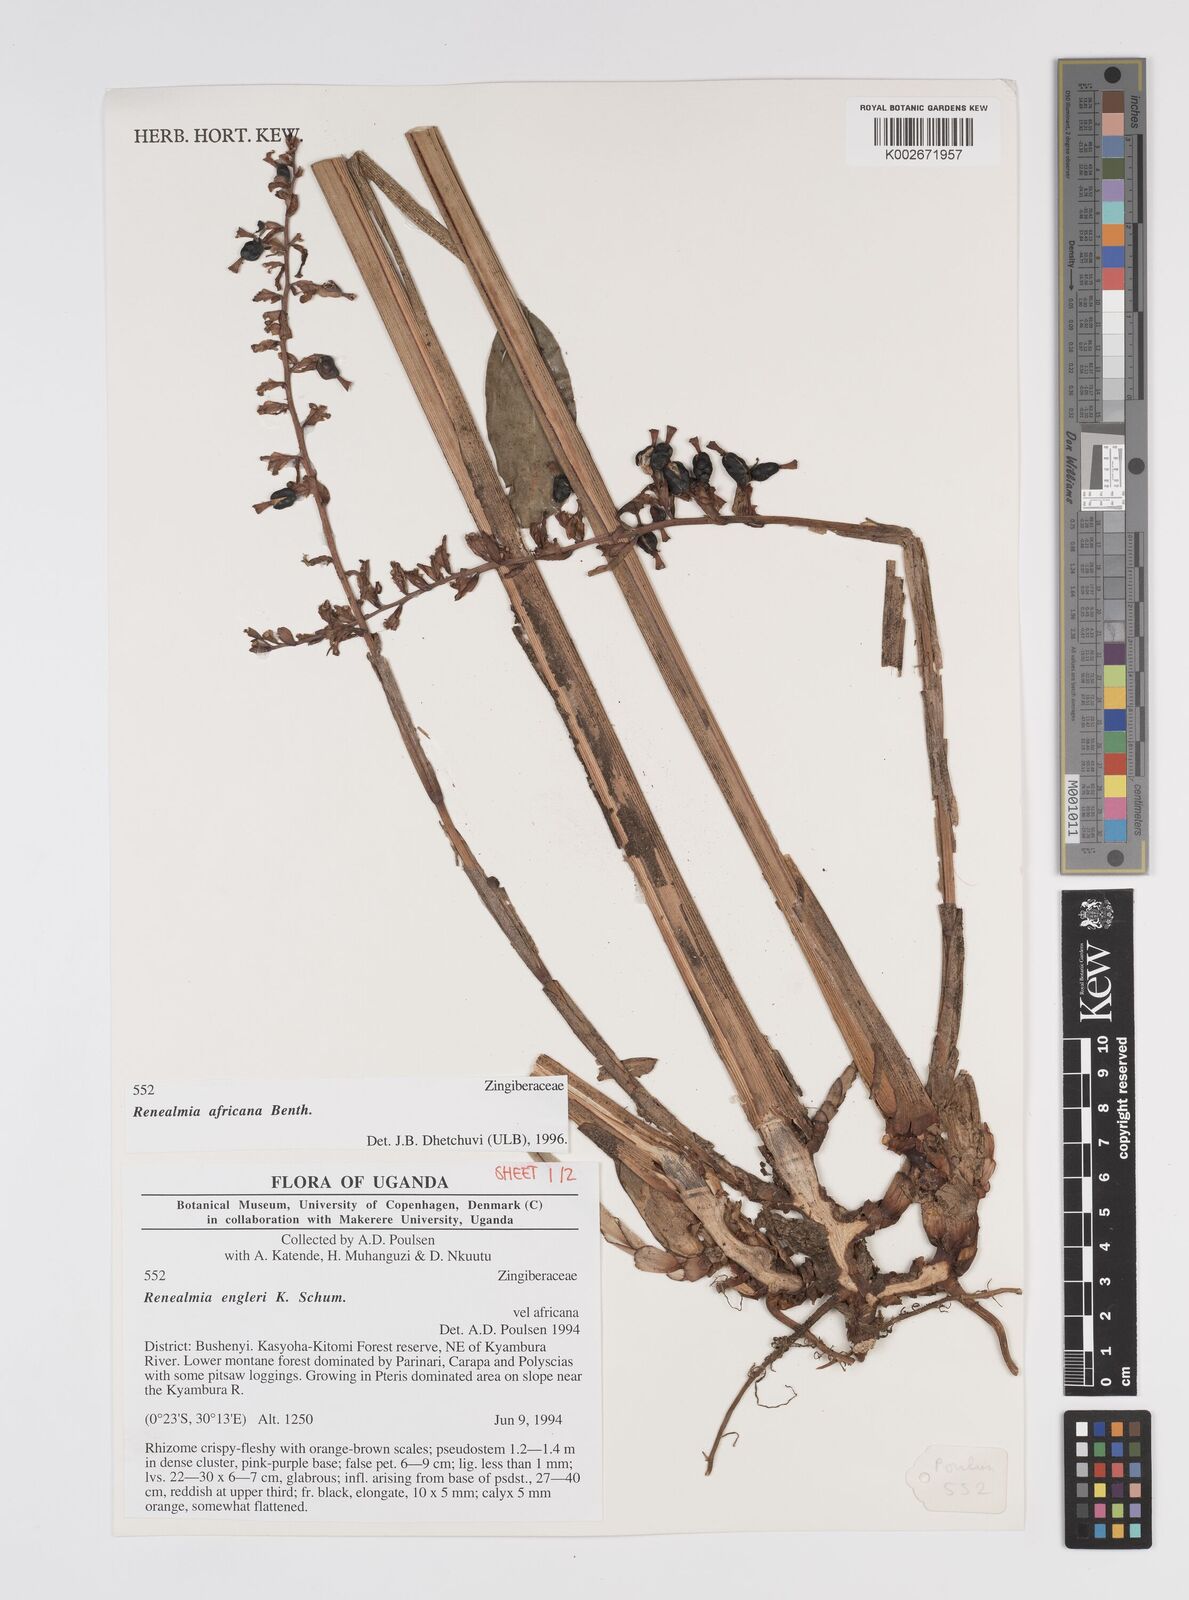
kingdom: Plantae
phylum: Tracheophyta
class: Liliopsida
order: Zingiberales
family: Zingiberaceae
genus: Renealmia
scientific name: Renealmia africana
